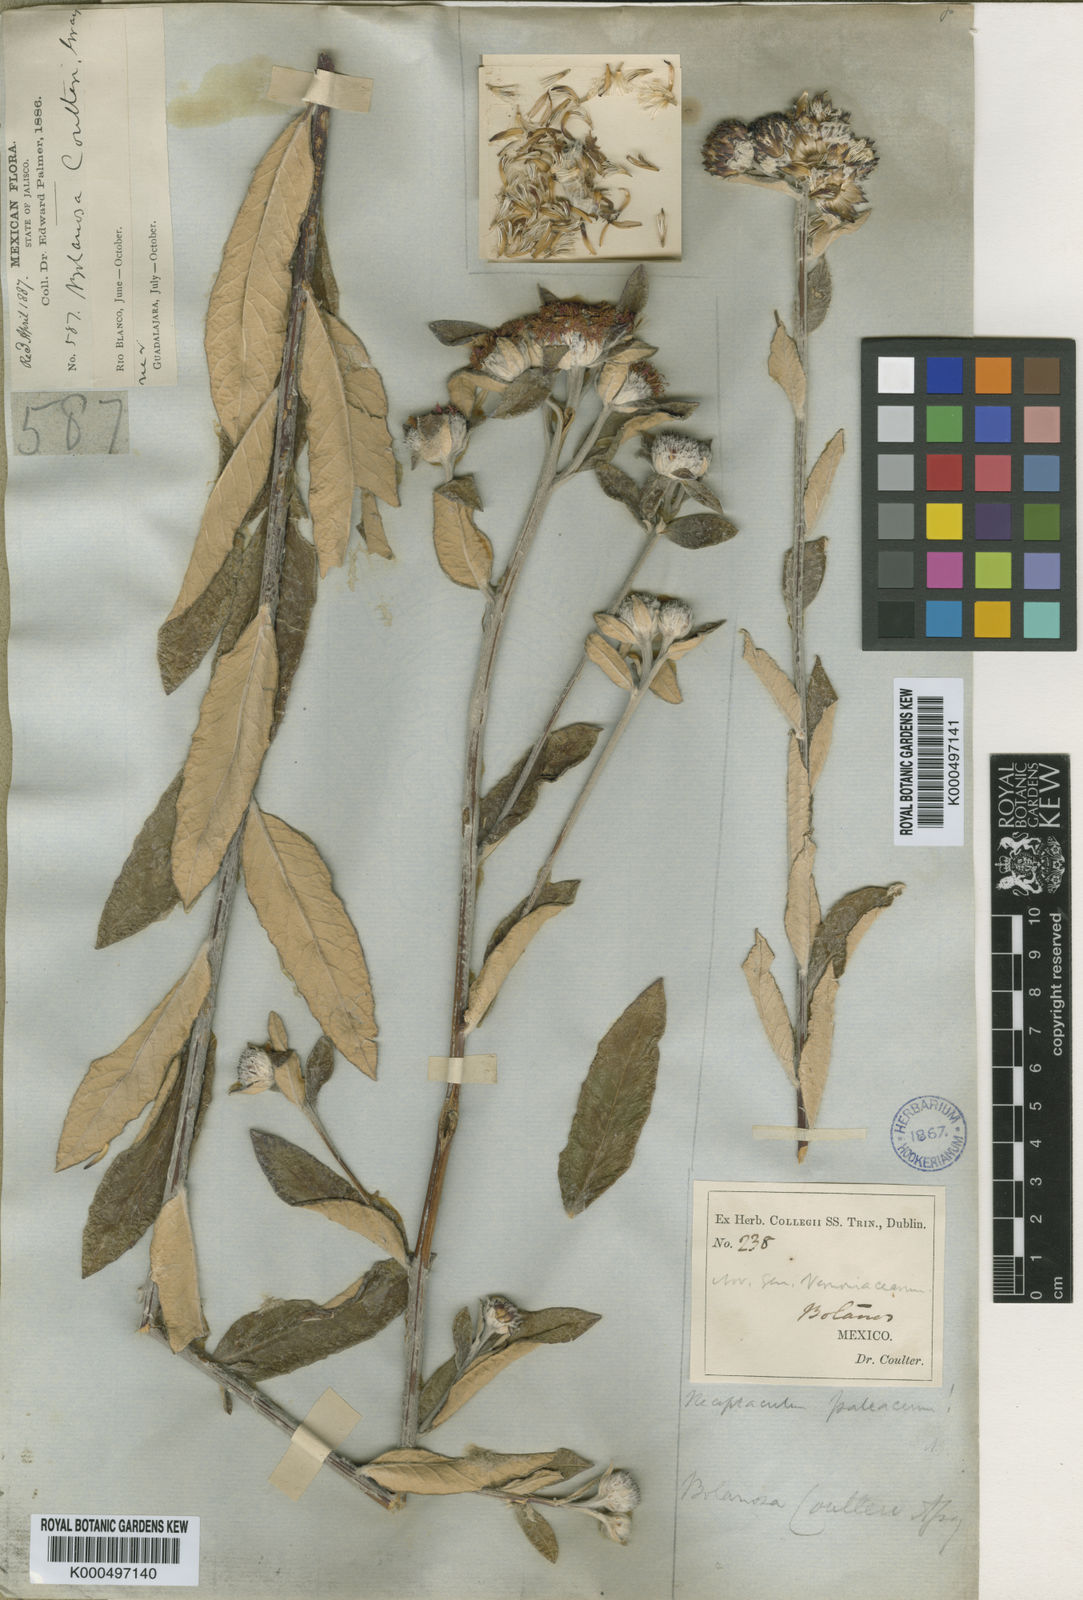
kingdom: Plantae
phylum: Tracheophyta
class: Magnoliopsida
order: Asterales
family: Asteraceae
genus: Bolanosa
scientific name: Bolanosa coulteri
